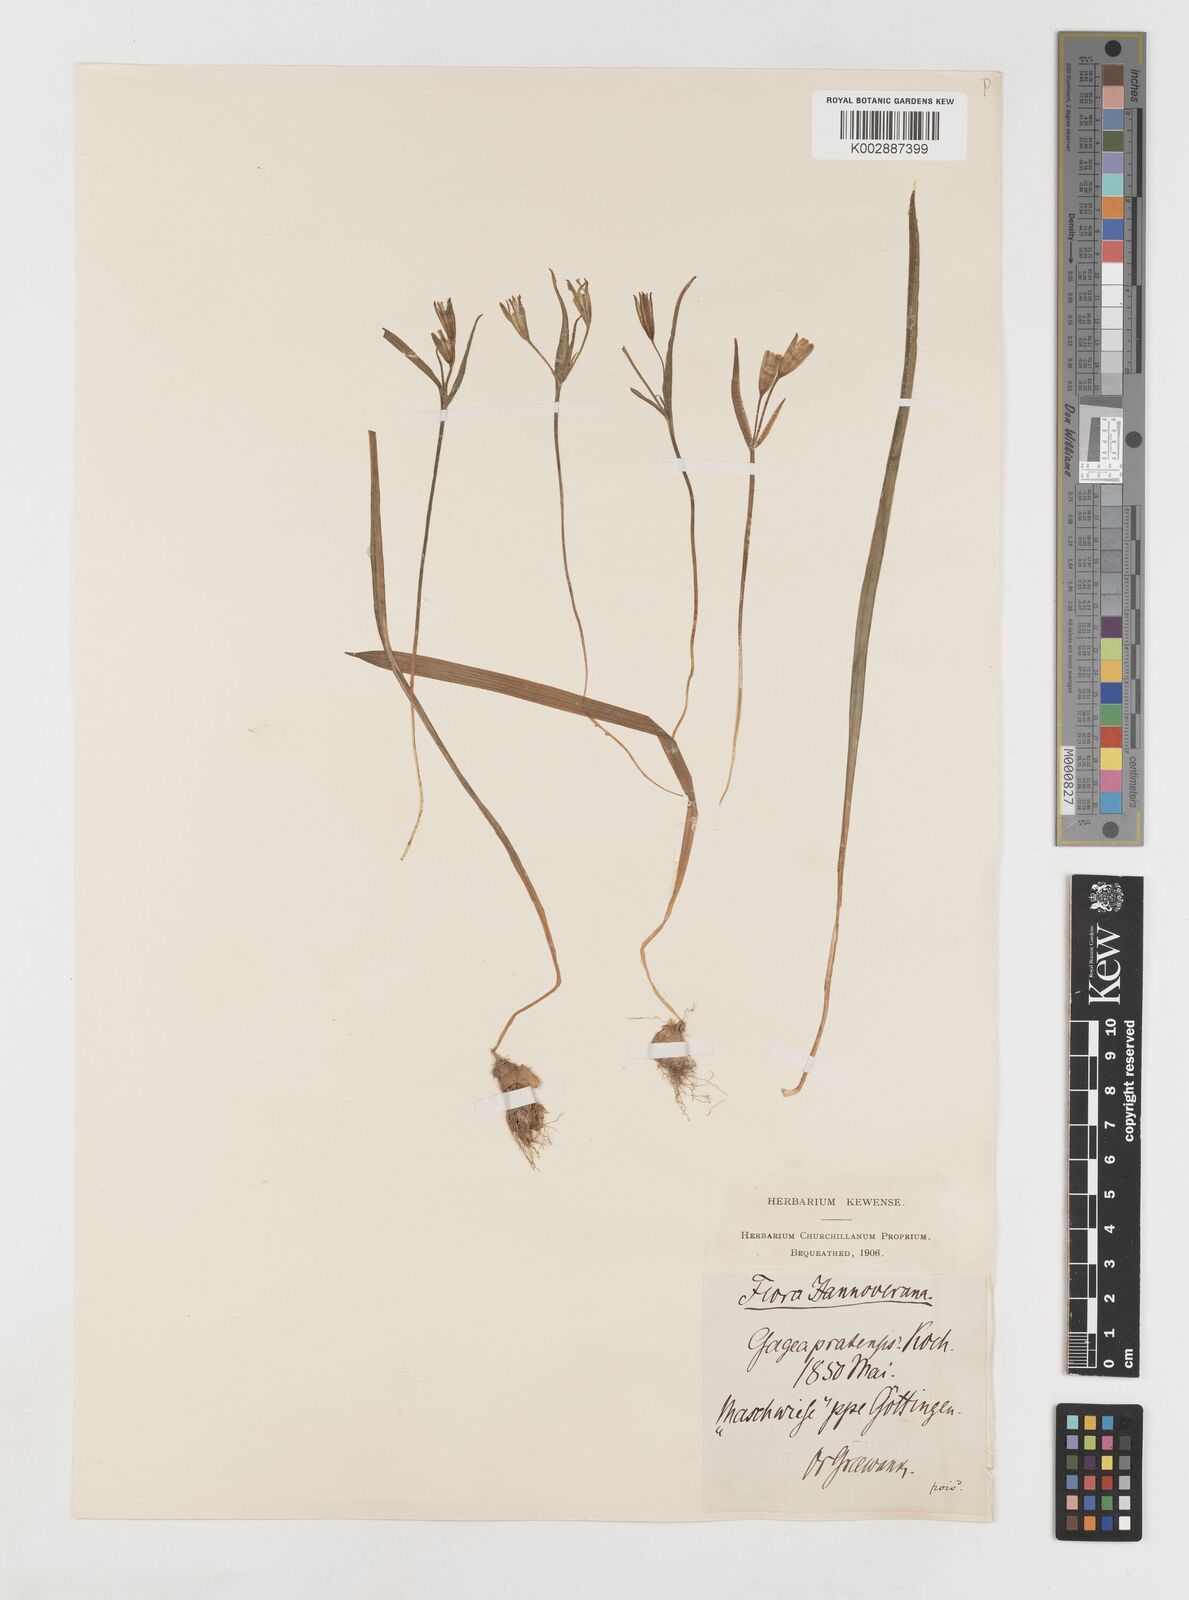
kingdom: Plantae
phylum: Tracheophyta
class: Liliopsida
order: Liliales
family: Liliaceae
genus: Gagea
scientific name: Gagea pratensis
